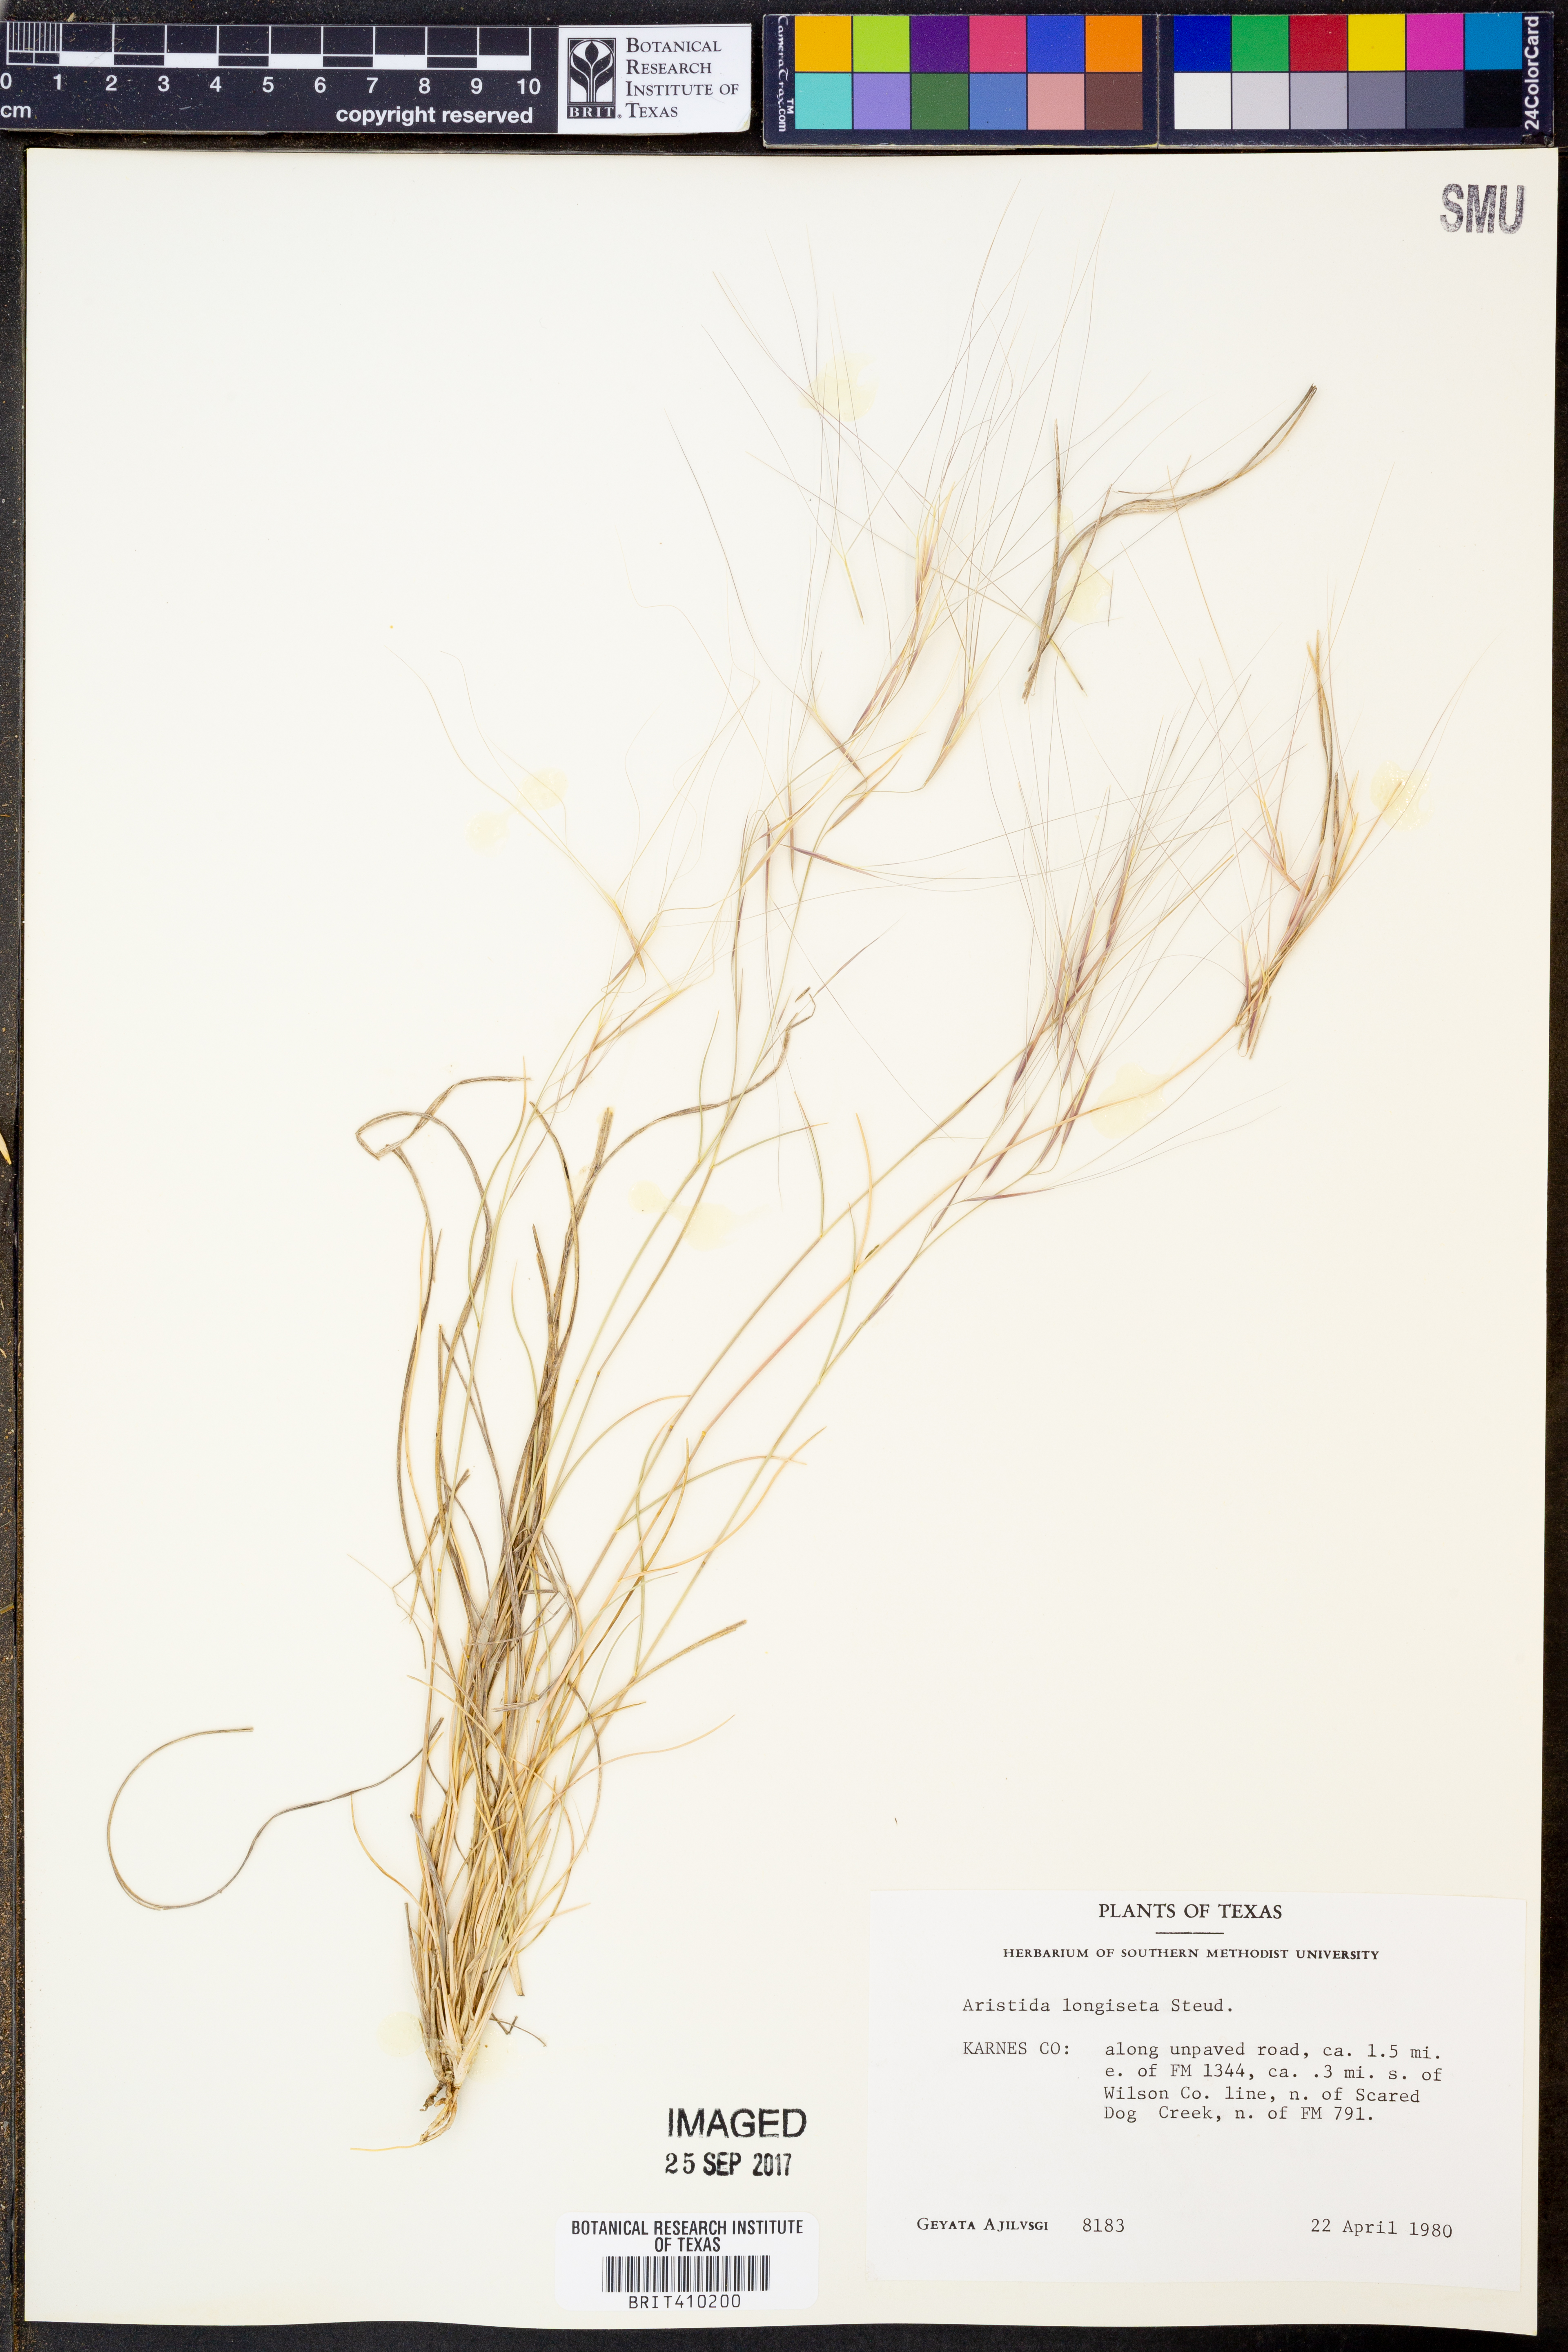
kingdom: Plantae
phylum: Tracheophyta
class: Liliopsida
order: Poales
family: Poaceae
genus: Aristida
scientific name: Aristida longiseta
